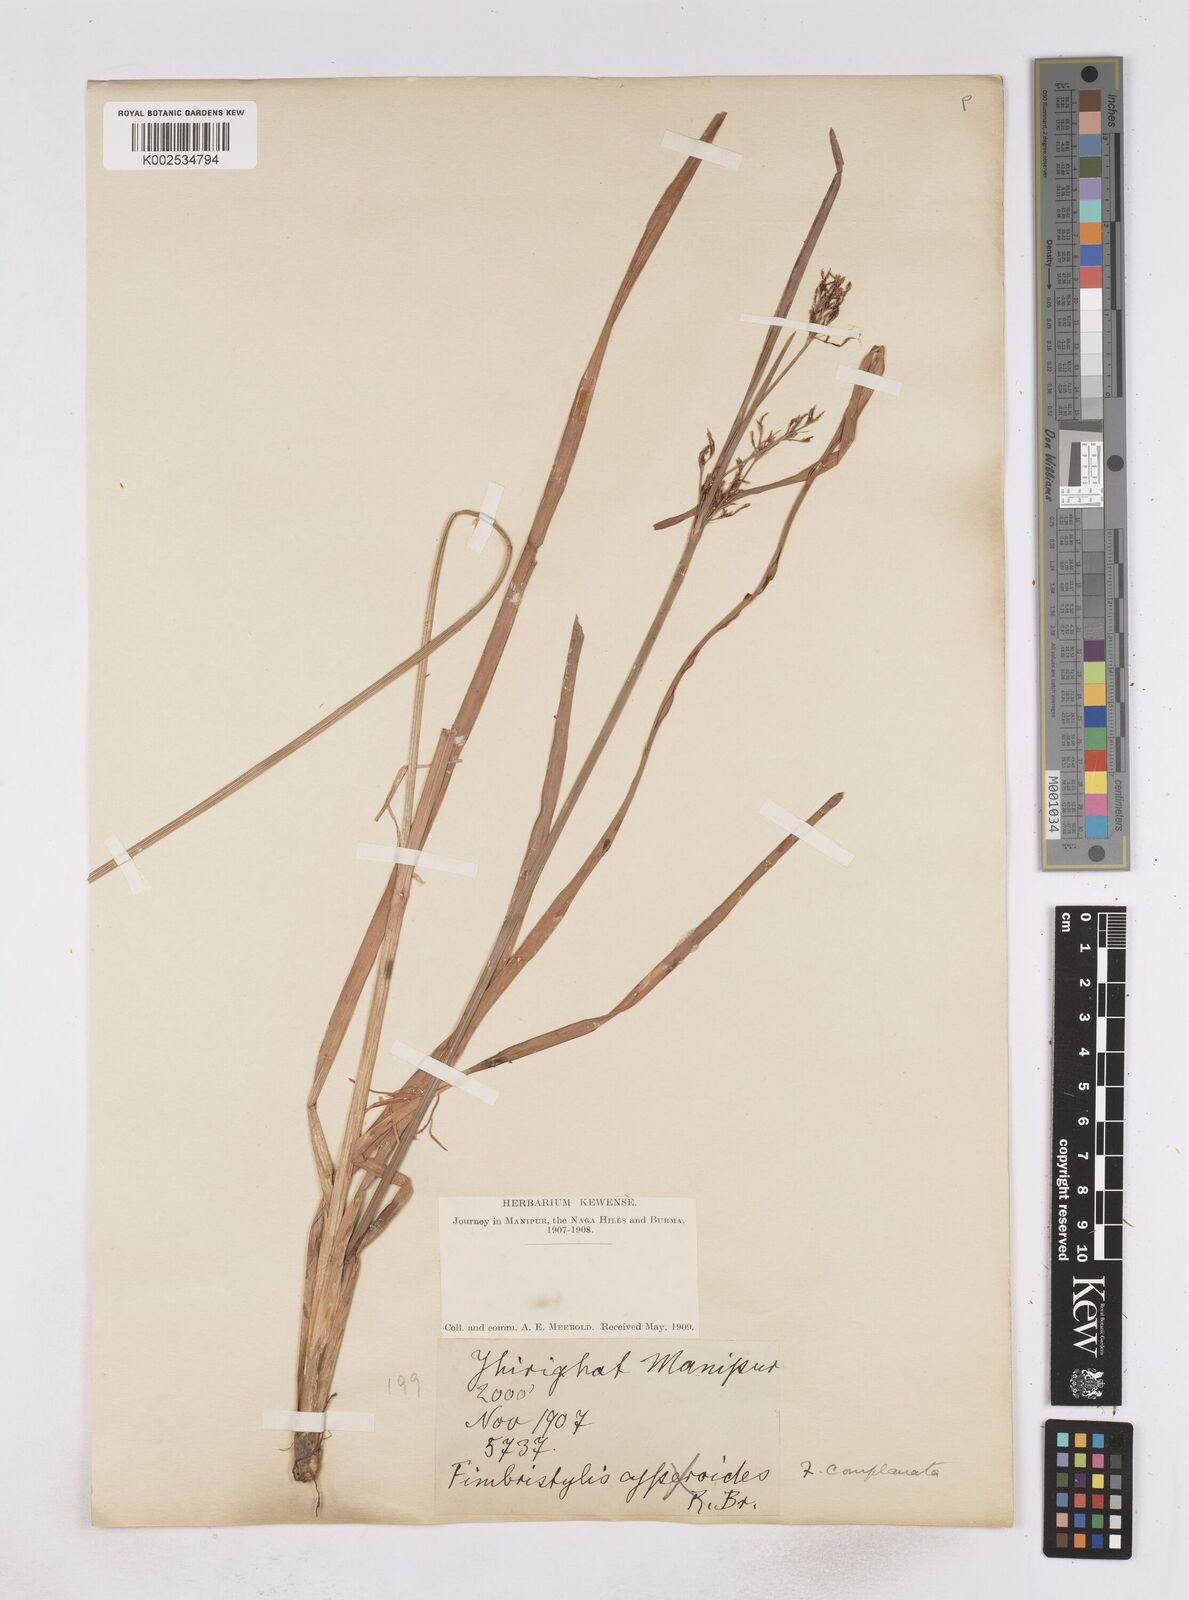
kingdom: Plantae
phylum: Tracheophyta
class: Liliopsida
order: Poales
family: Cyperaceae
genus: Fimbristylis
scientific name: Fimbristylis complanata
